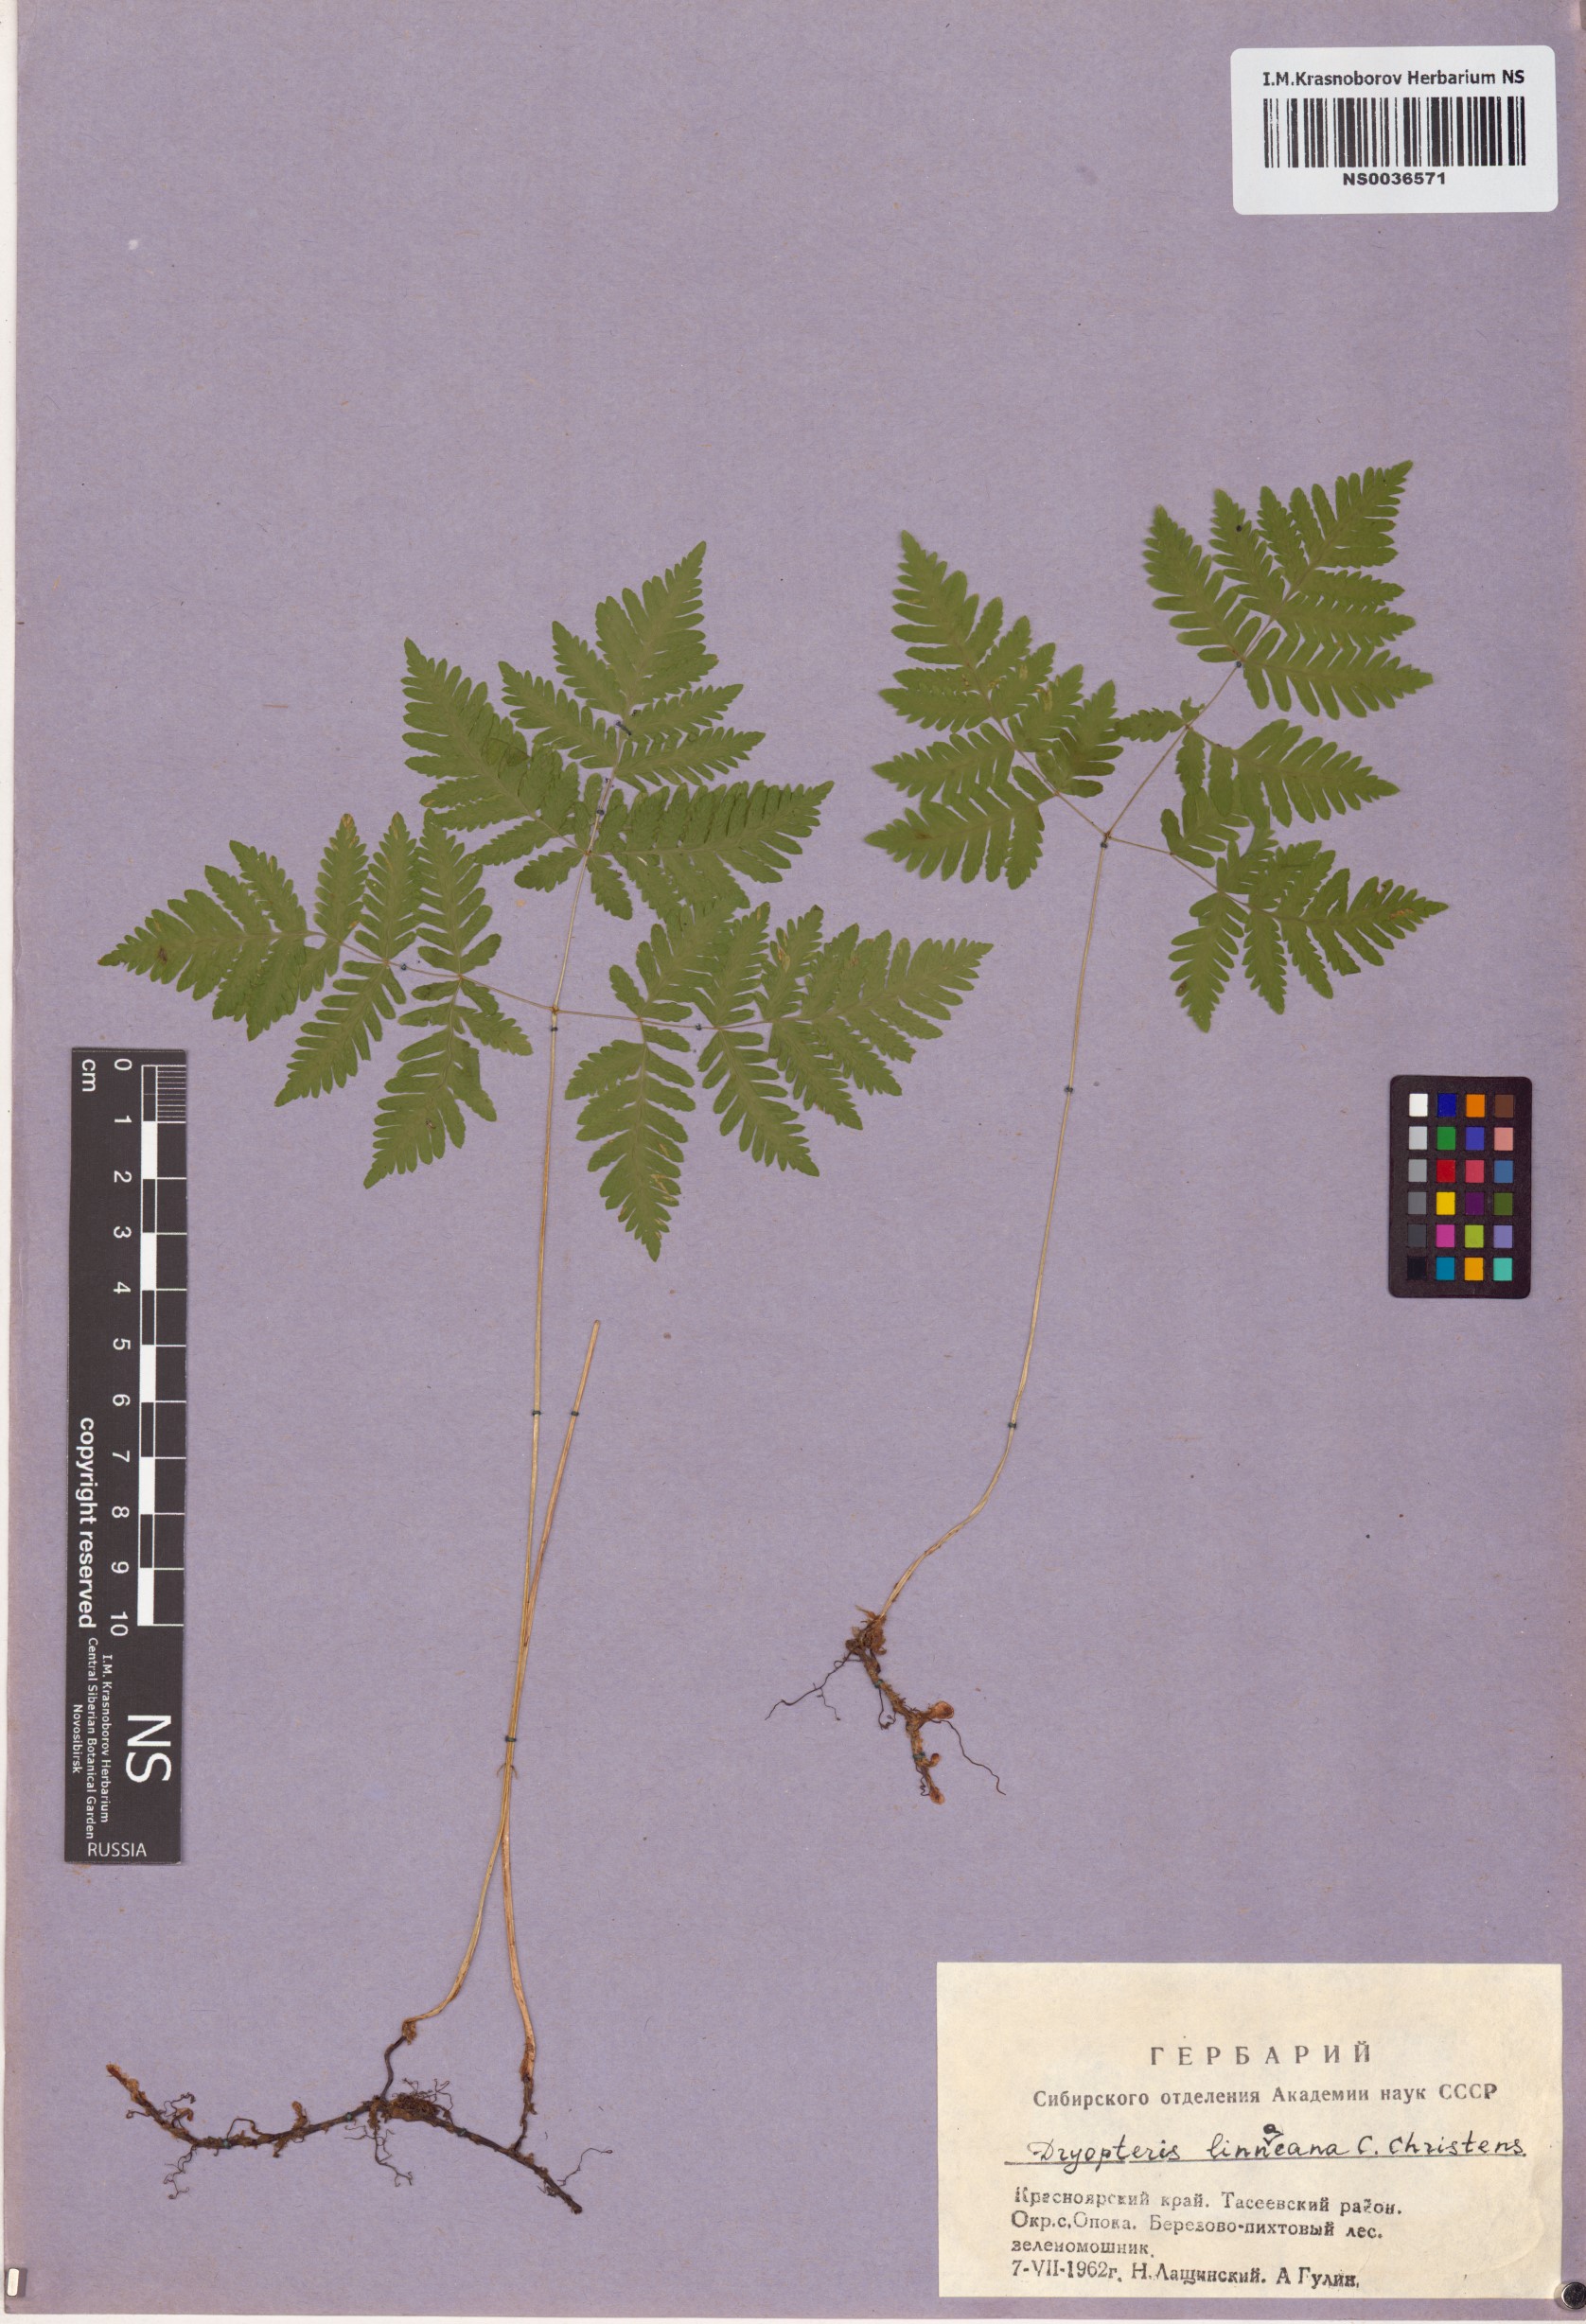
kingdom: Plantae
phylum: Tracheophyta
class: Polypodiopsida
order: Polypodiales
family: Cystopteridaceae
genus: Gymnocarpium
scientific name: Gymnocarpium dryopteris
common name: Oak fern
